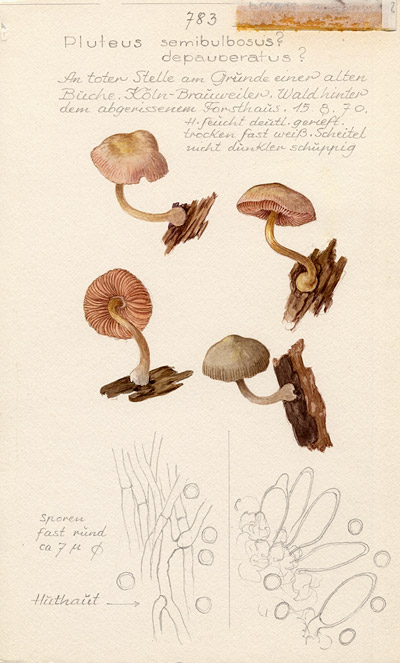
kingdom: Fungi
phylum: Basidiomycota
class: Agaricomycetes
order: Agaricales
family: Pluteaceae
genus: Pluteus
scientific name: Pluteus semibulbosus
